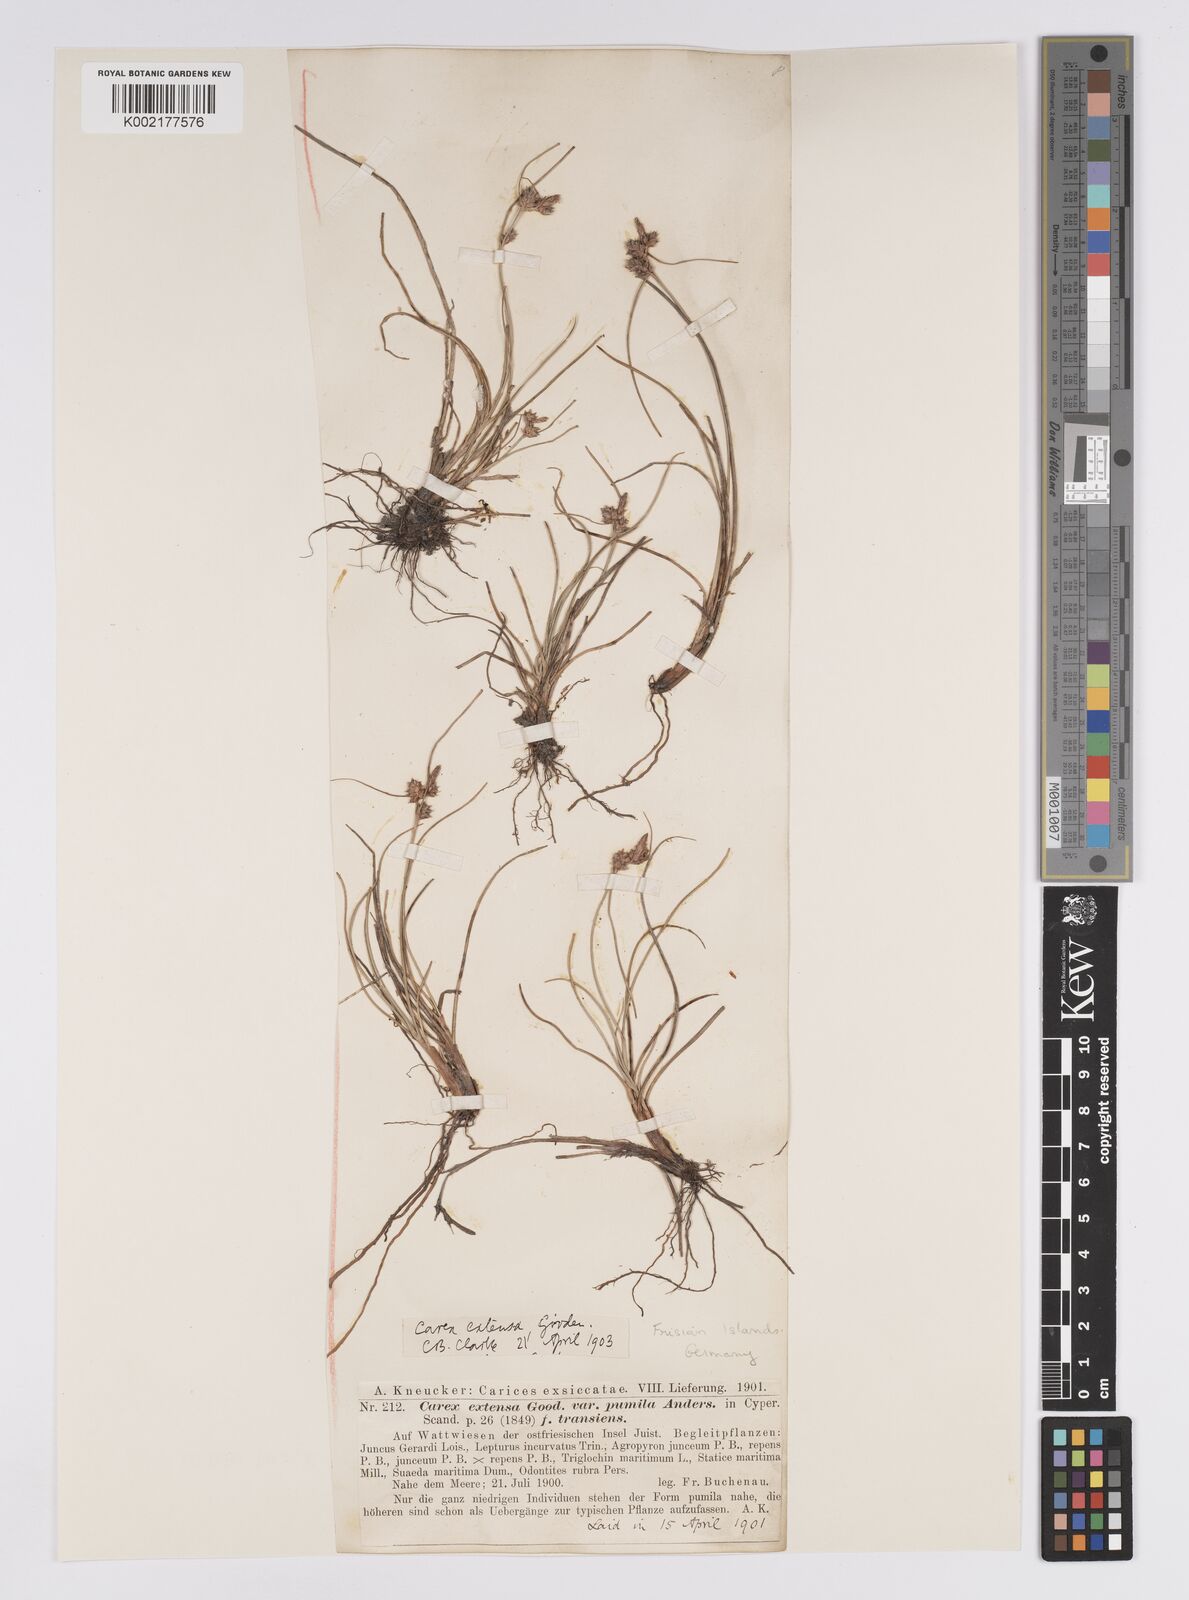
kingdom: Plantae
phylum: Tracheophyta
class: Liliopsida
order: Poales
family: Cyperaceae
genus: Carex
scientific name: Carex extensa
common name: Long-bracted sedge
